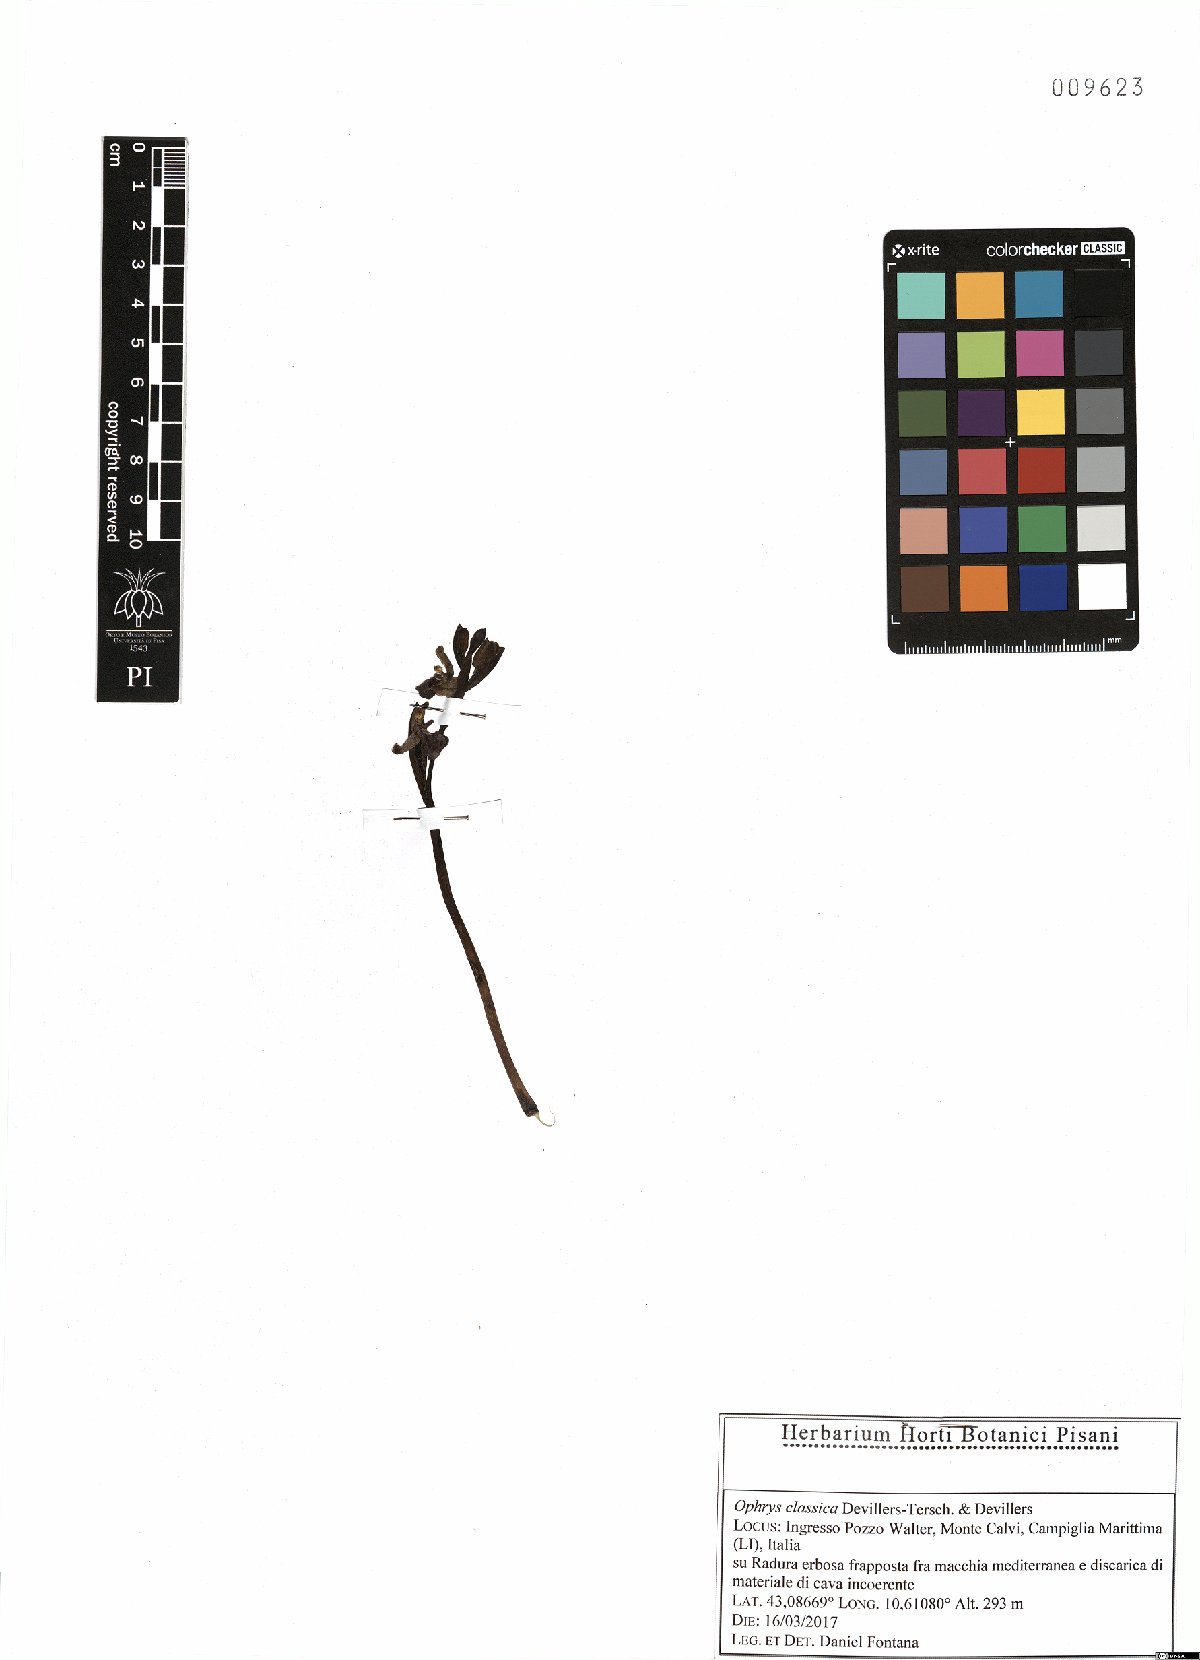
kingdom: Plantae
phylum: Tracheophyta
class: Liliopsida
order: Asparagales
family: Orchidaceae
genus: Ophrys
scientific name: Ophrys sphegodes
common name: Early spider-orchid
